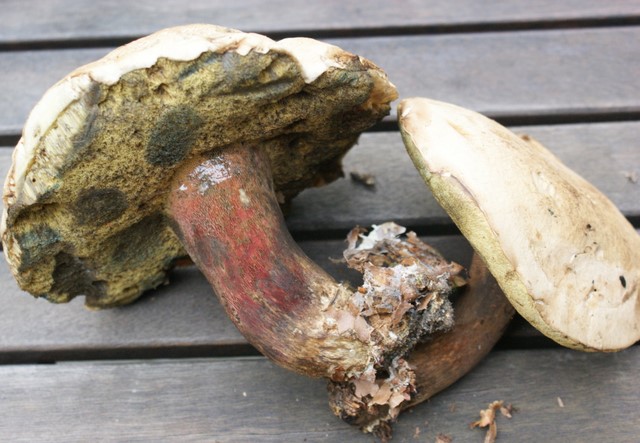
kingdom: Fungi
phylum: Basidiomycota
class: Agaricomycetes
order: Boletales
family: Boletaceae
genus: Caloboletus
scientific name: Caloboletus calopus
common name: skønfodet rørhat
